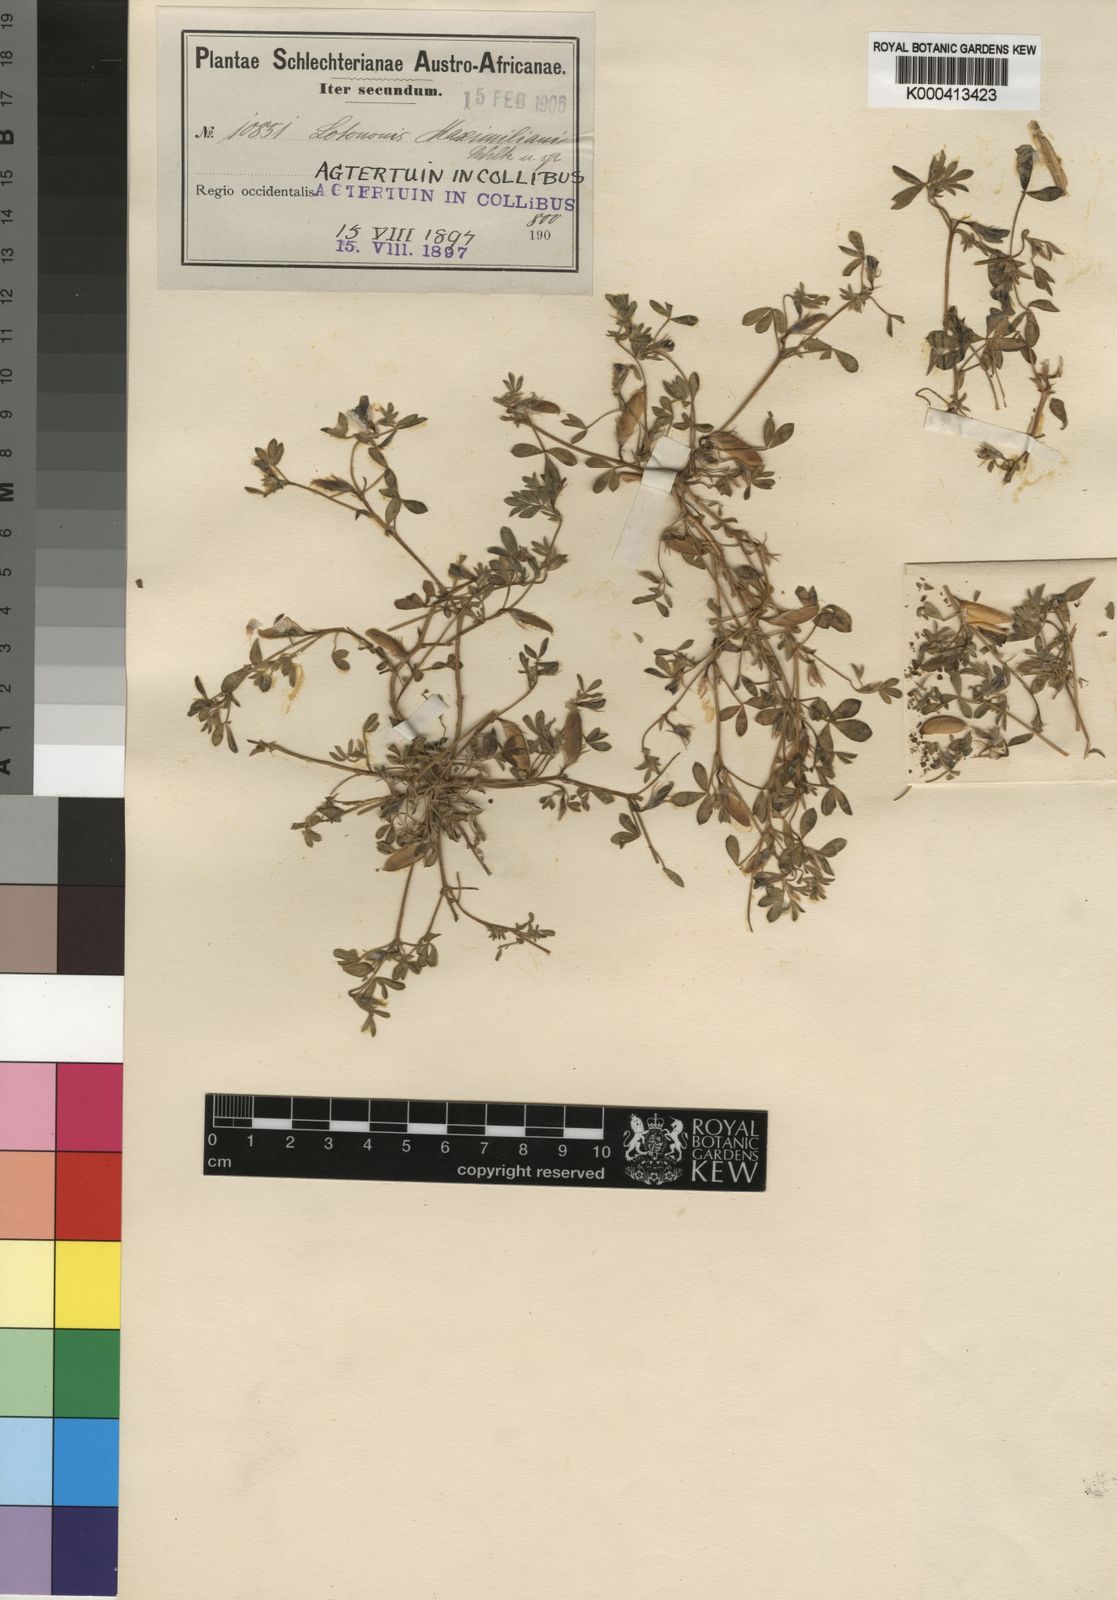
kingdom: Plantae
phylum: Tracheophyta
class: Magnoliopsida
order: Fabales
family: Fabaceae
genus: Lotononis
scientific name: Lotononis maximiliani
